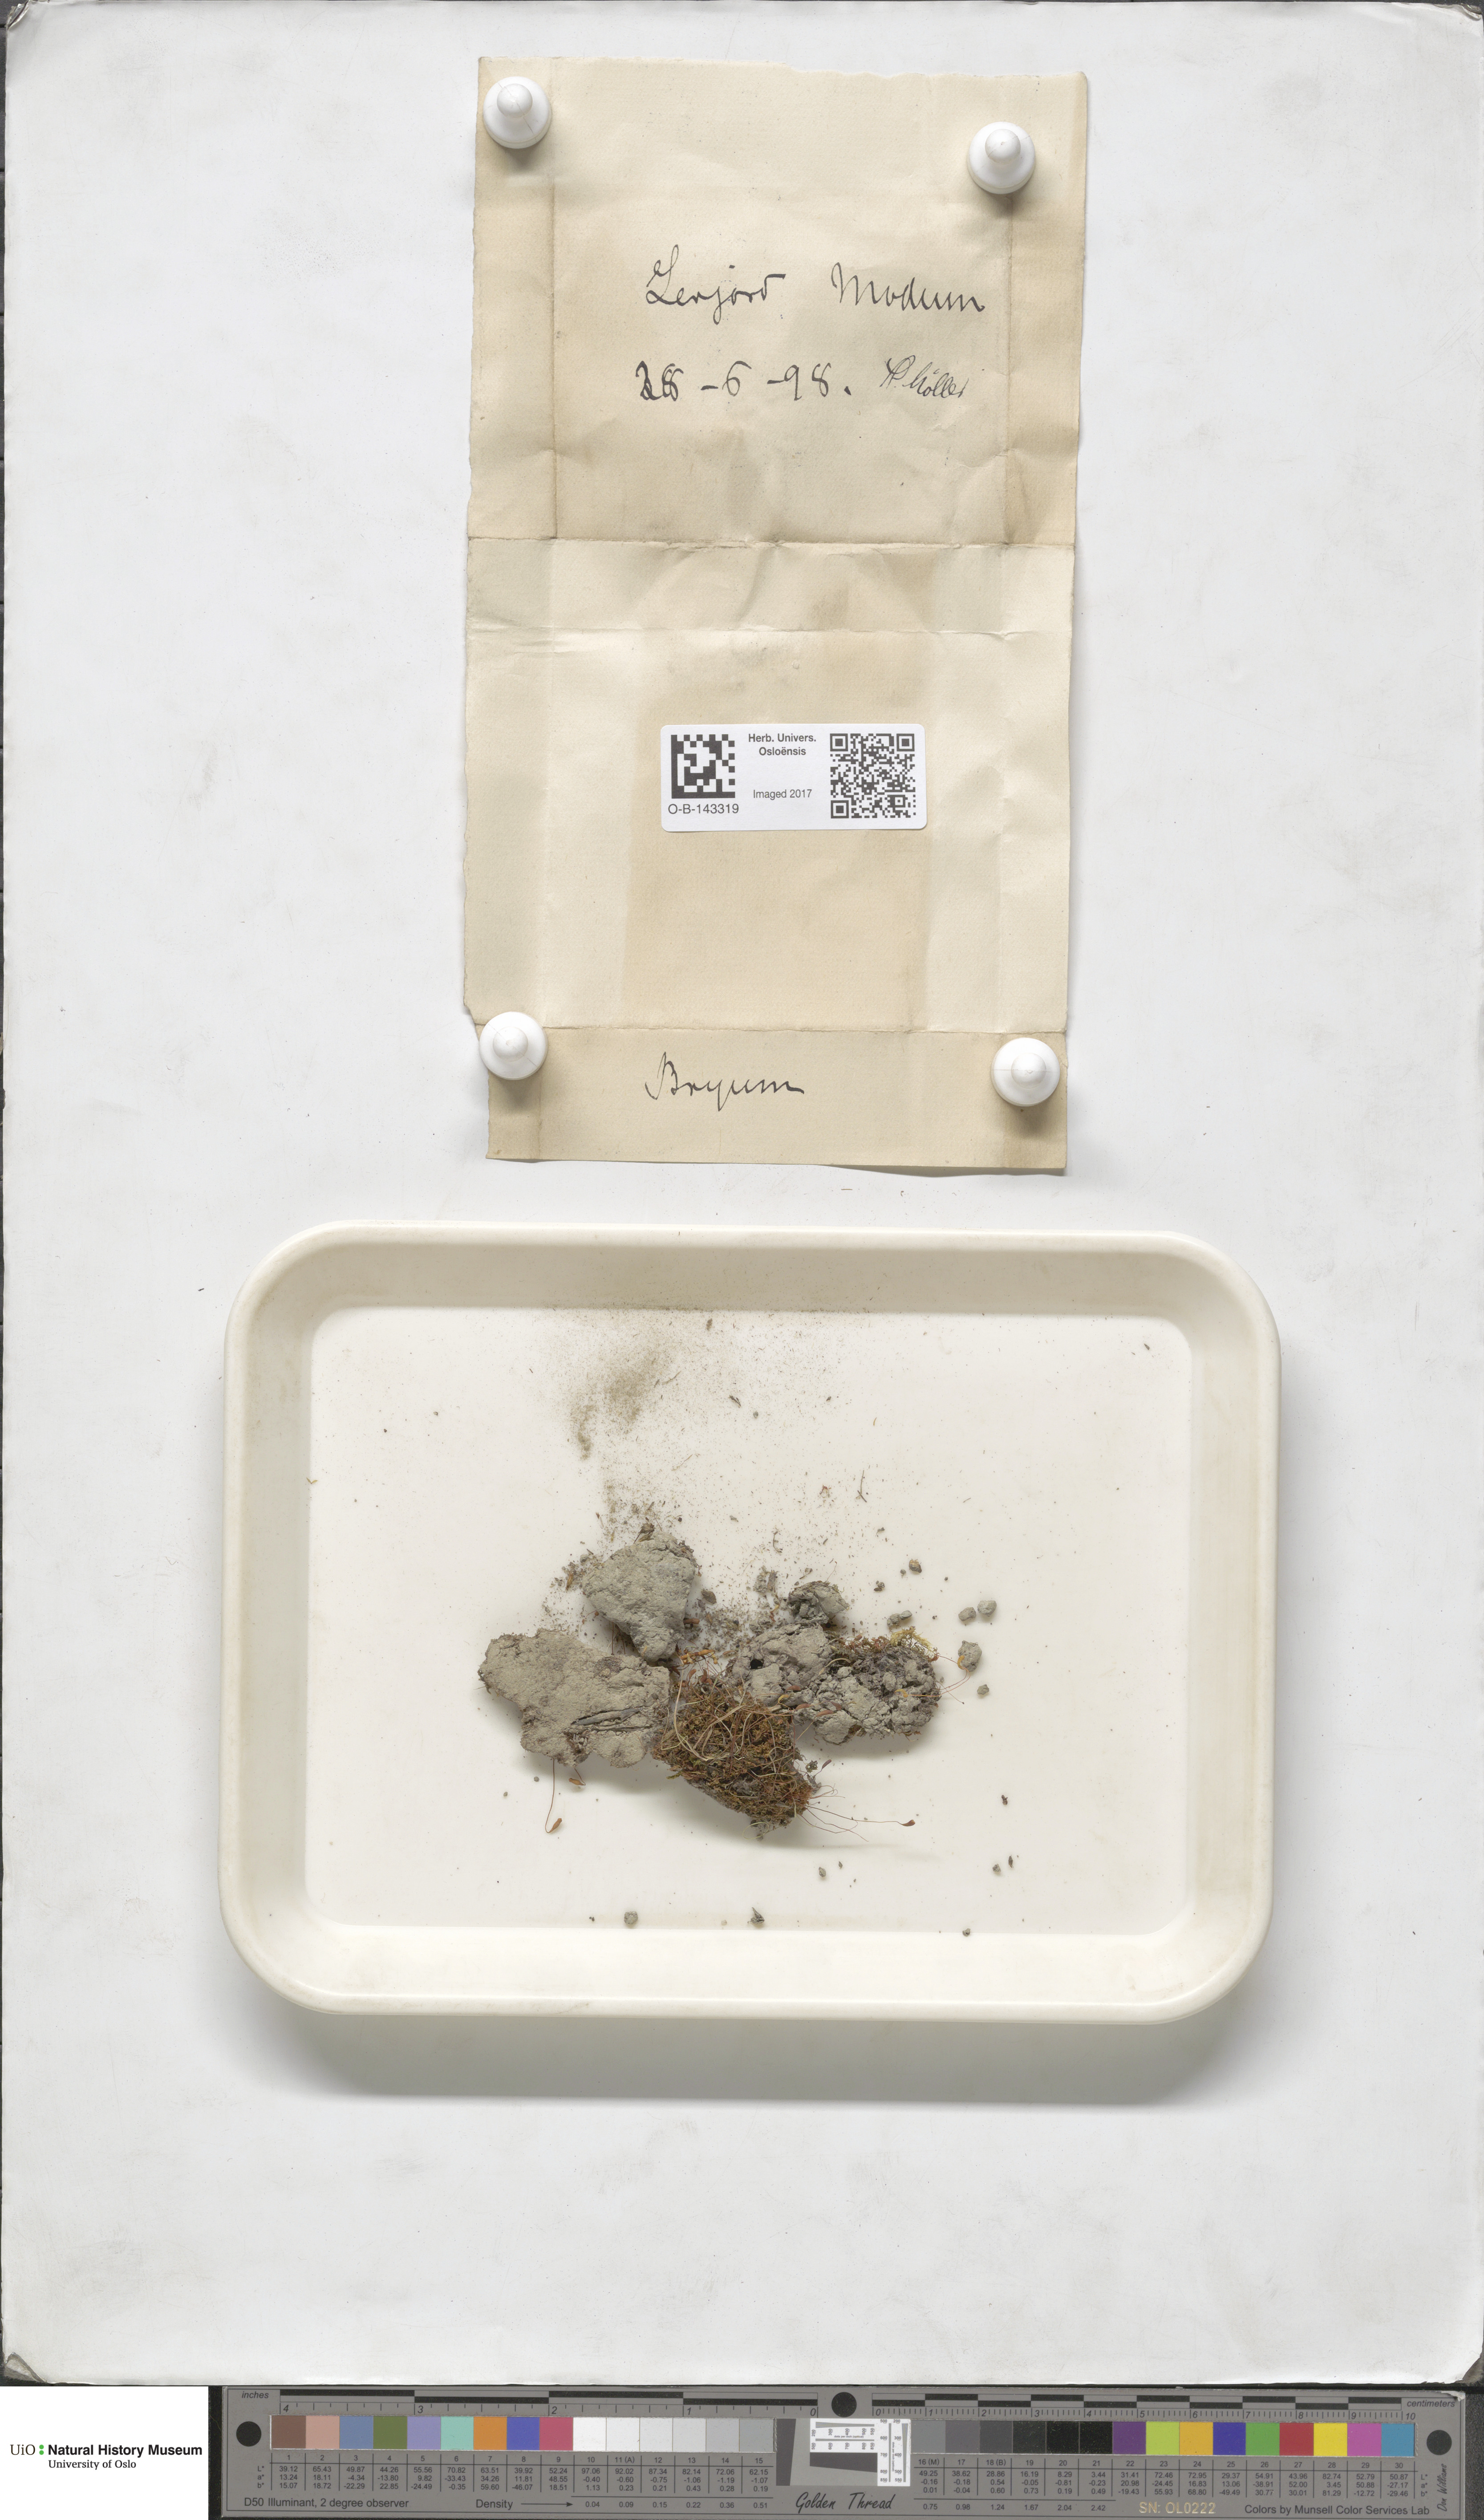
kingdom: Plantae
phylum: Bryophyta
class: Bryopsida
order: Bryales
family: Bryaceae
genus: Bryum
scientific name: Bryum
